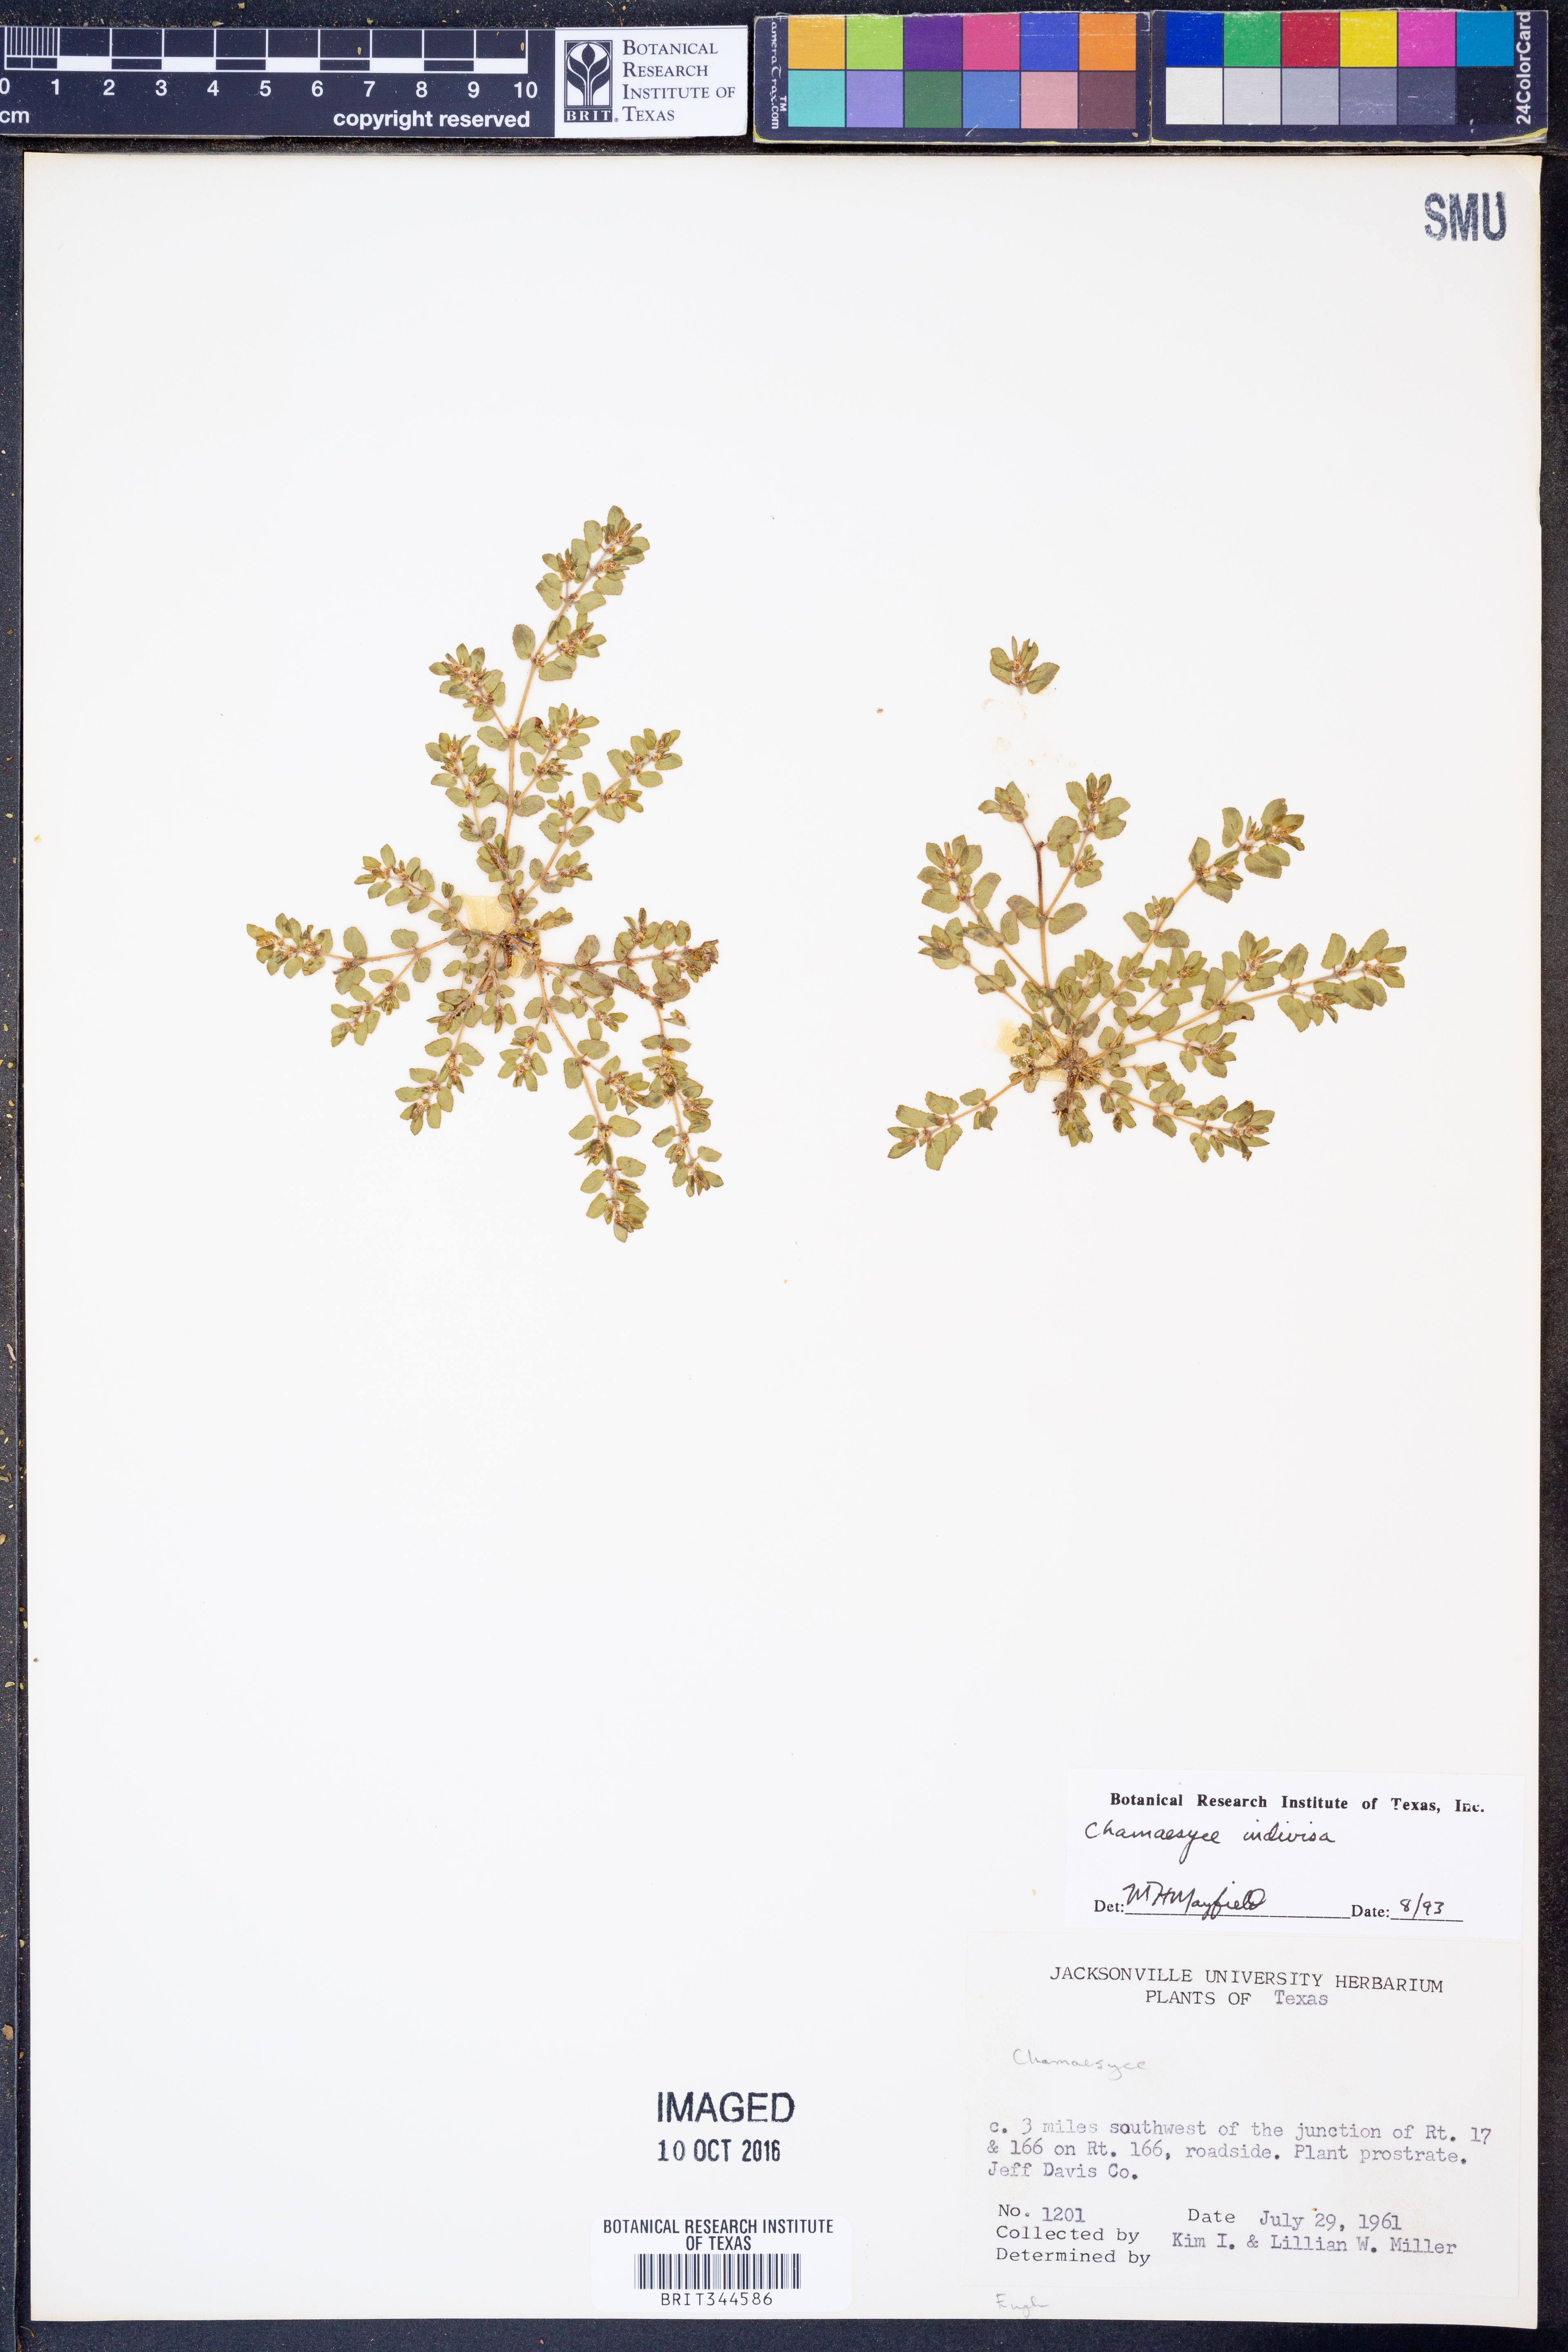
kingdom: Plantae
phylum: Tracheophyta
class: Magnoliopsida
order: Malpighiales
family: Euphorbiaceae
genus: Euphorbia
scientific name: Euphorbia indivisa
